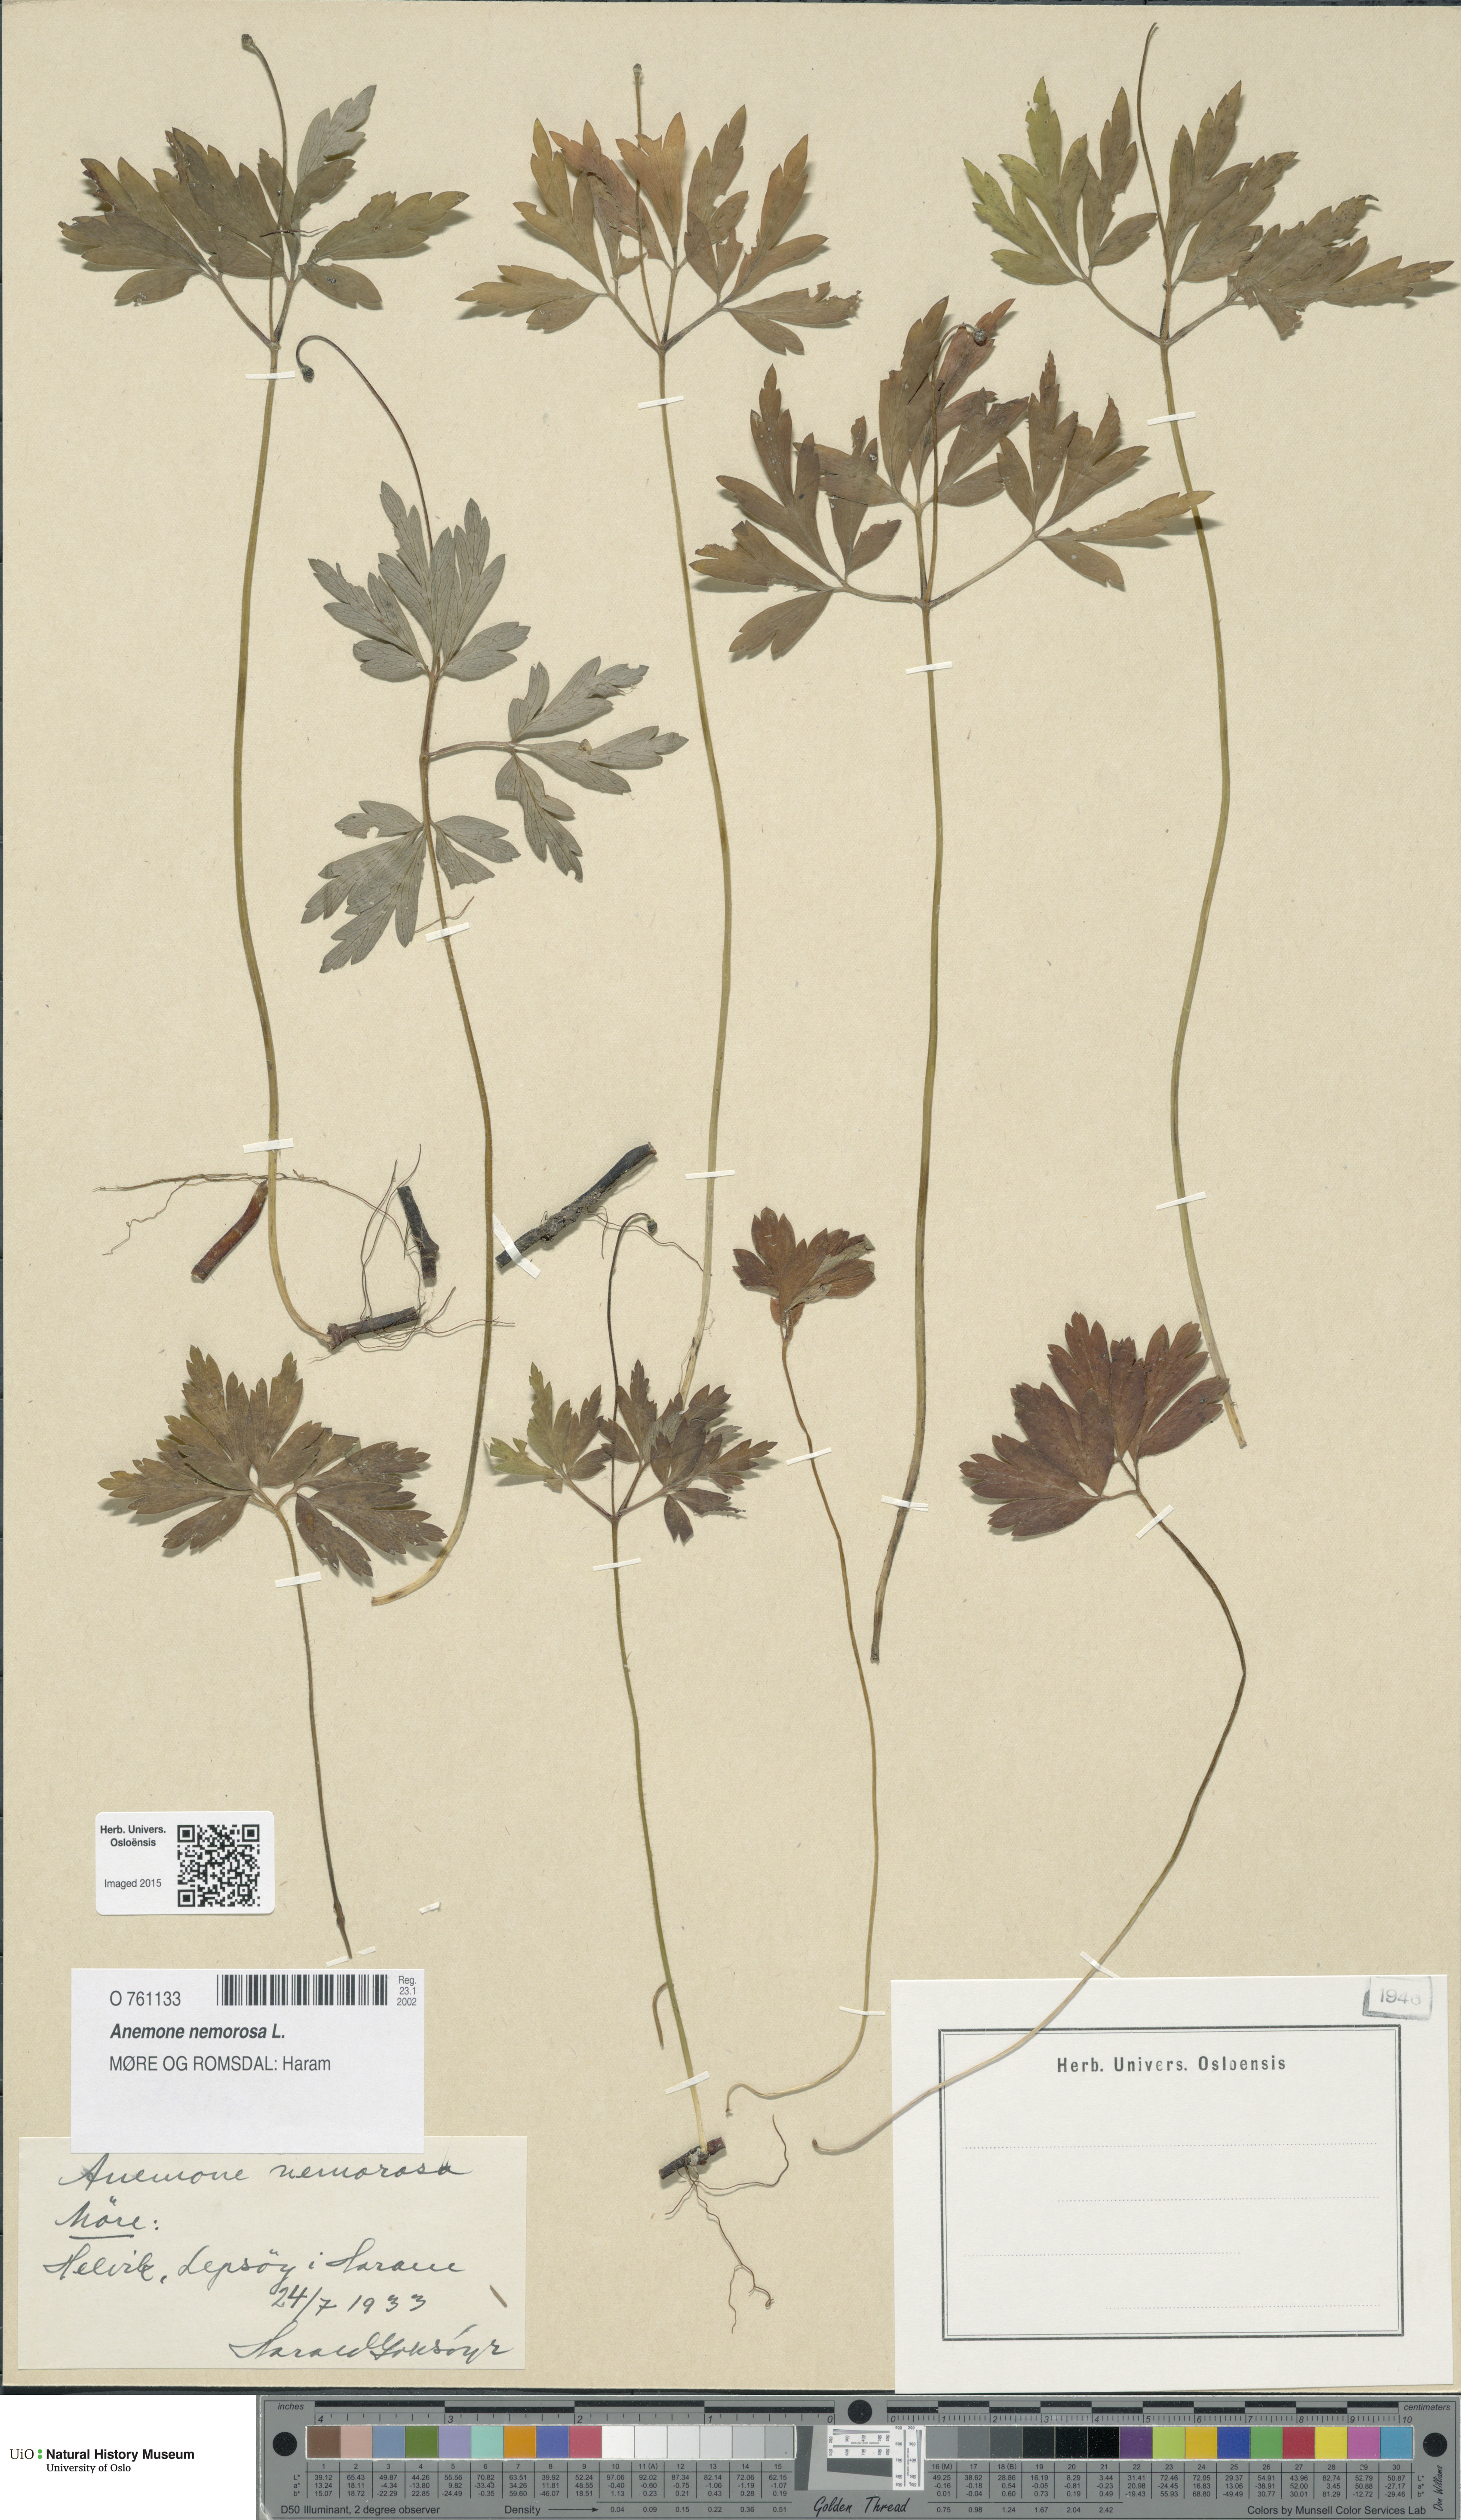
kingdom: Plantae
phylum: Tracheophyta
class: Magnoliopsida
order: Ranunculales
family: Ranunculaceae
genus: Anemone
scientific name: Anemone nemorosa
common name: Wood anemone
